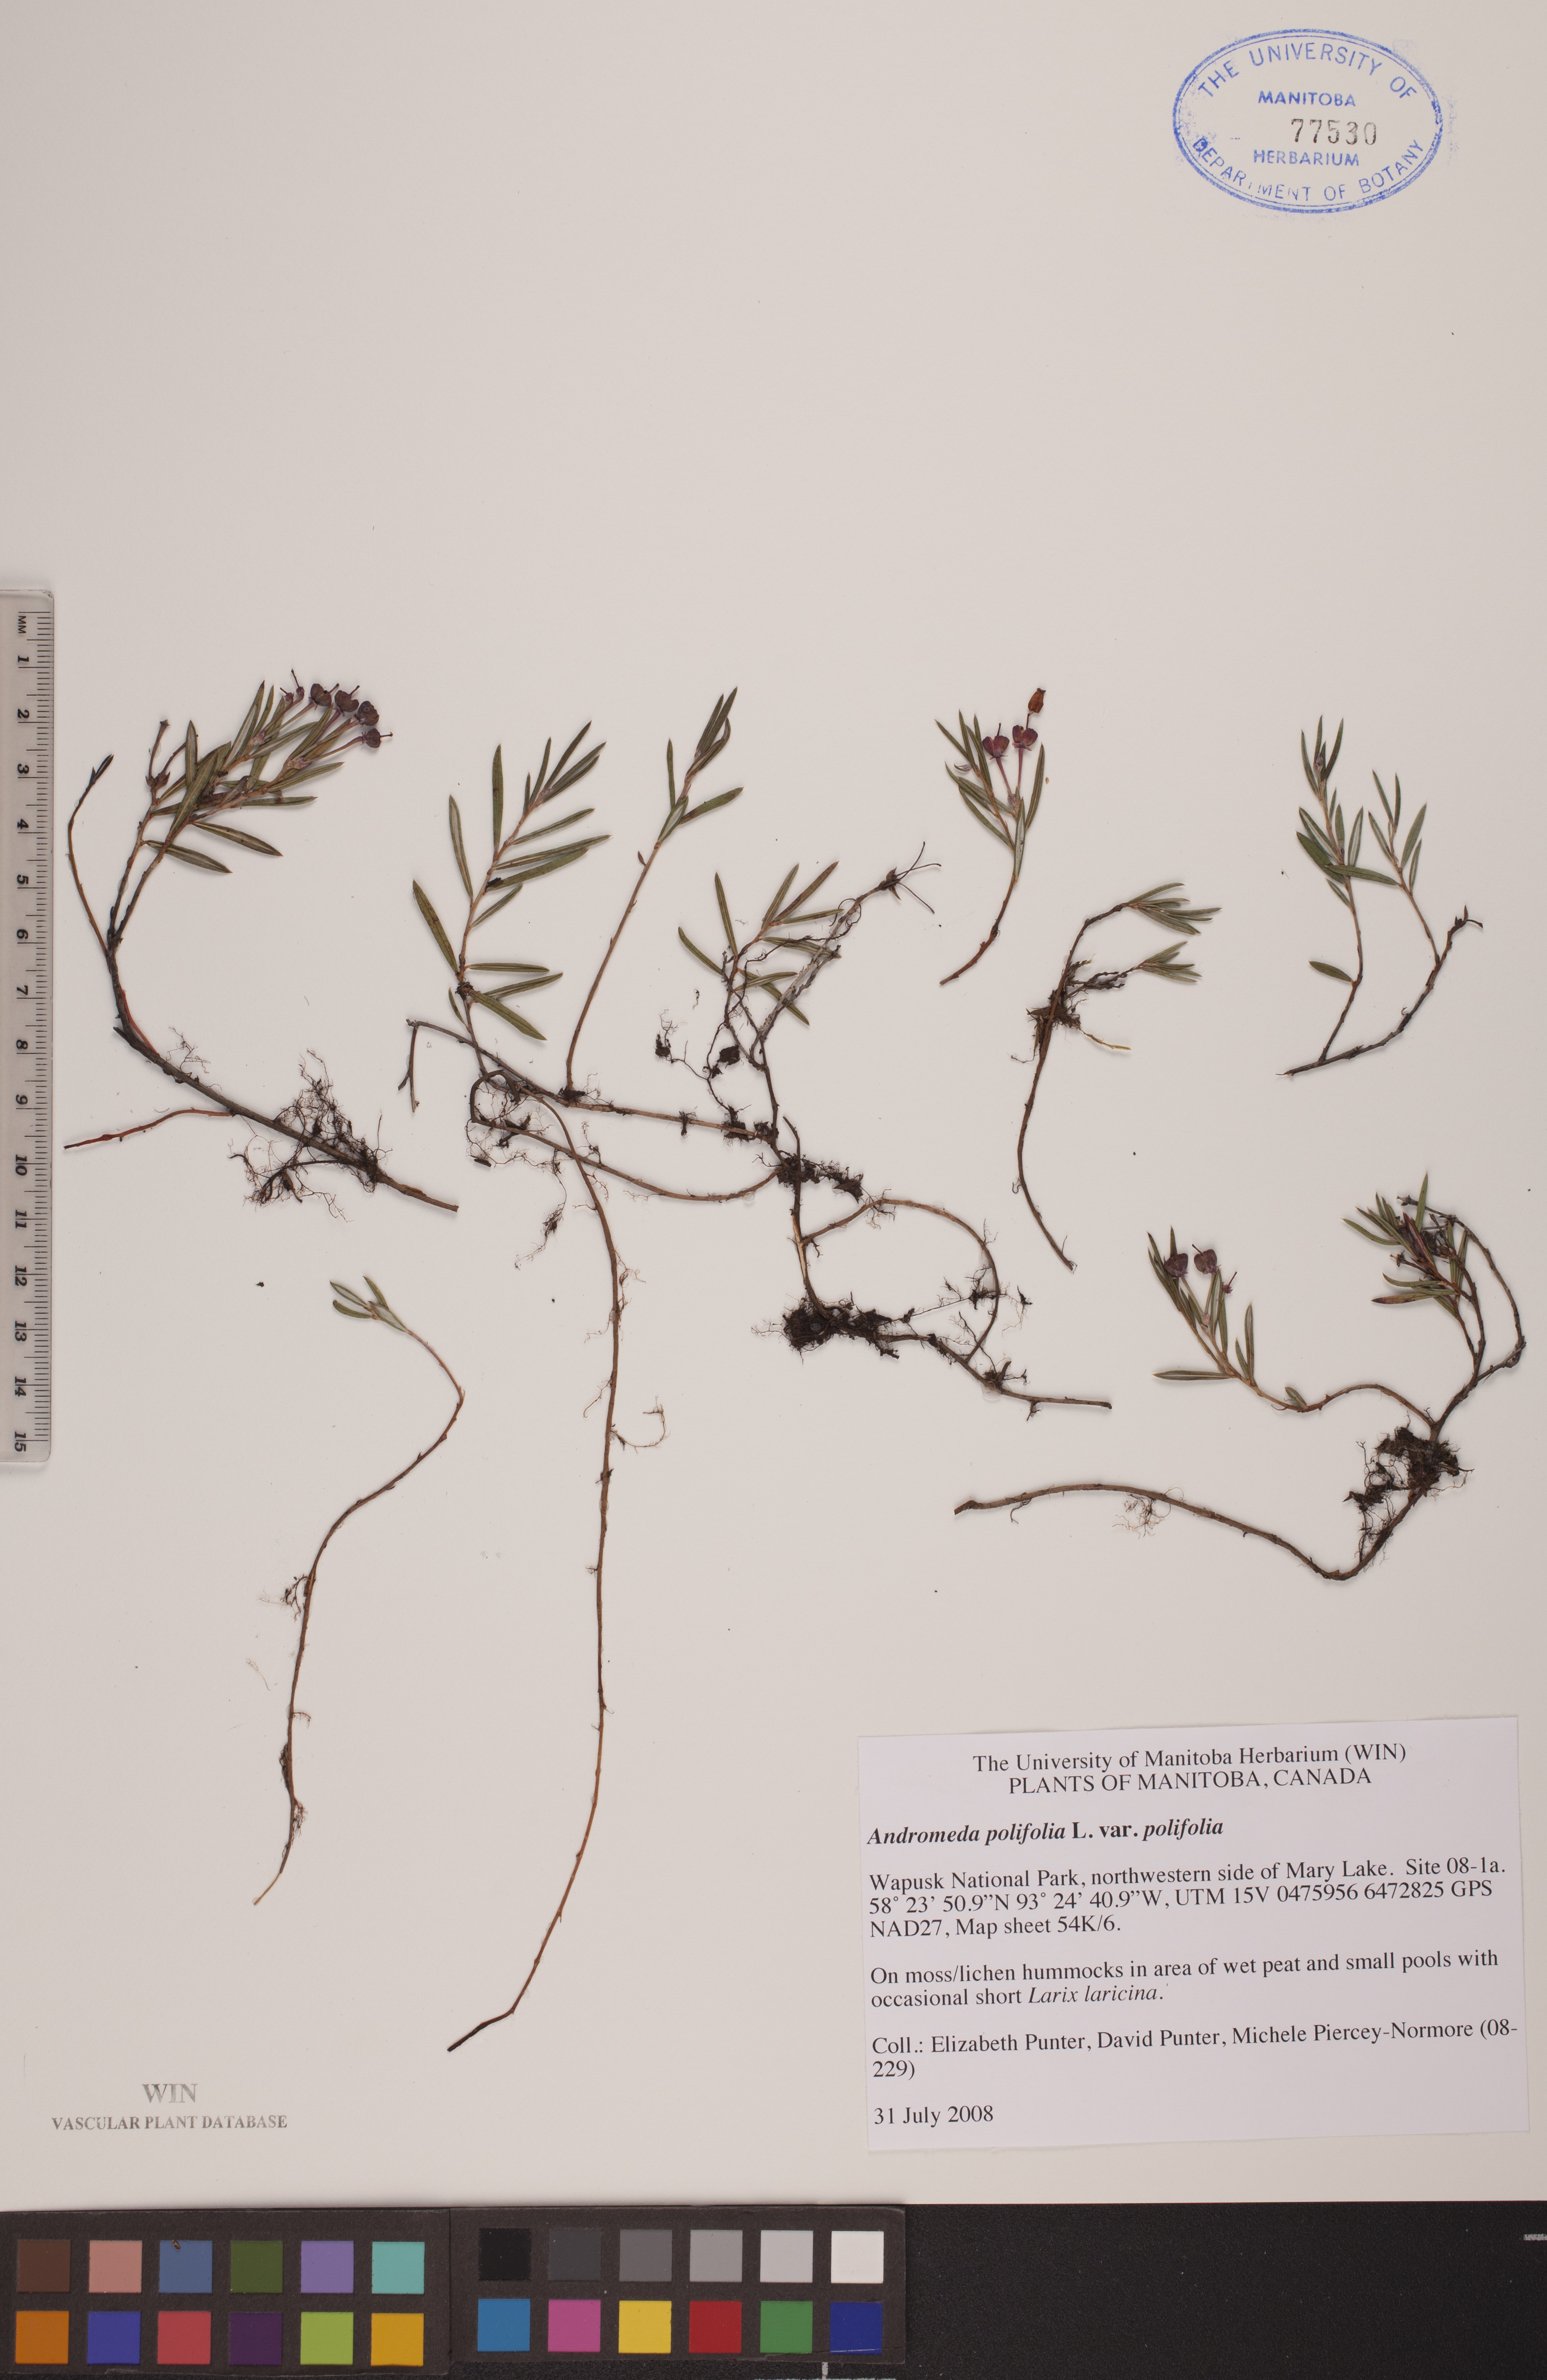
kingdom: Plantae
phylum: Tracheophyta
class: Magnoliopsida
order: Ericales
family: Ericaceae
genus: Andromeda
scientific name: Andromeda polifolia
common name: Bog-rosemary
